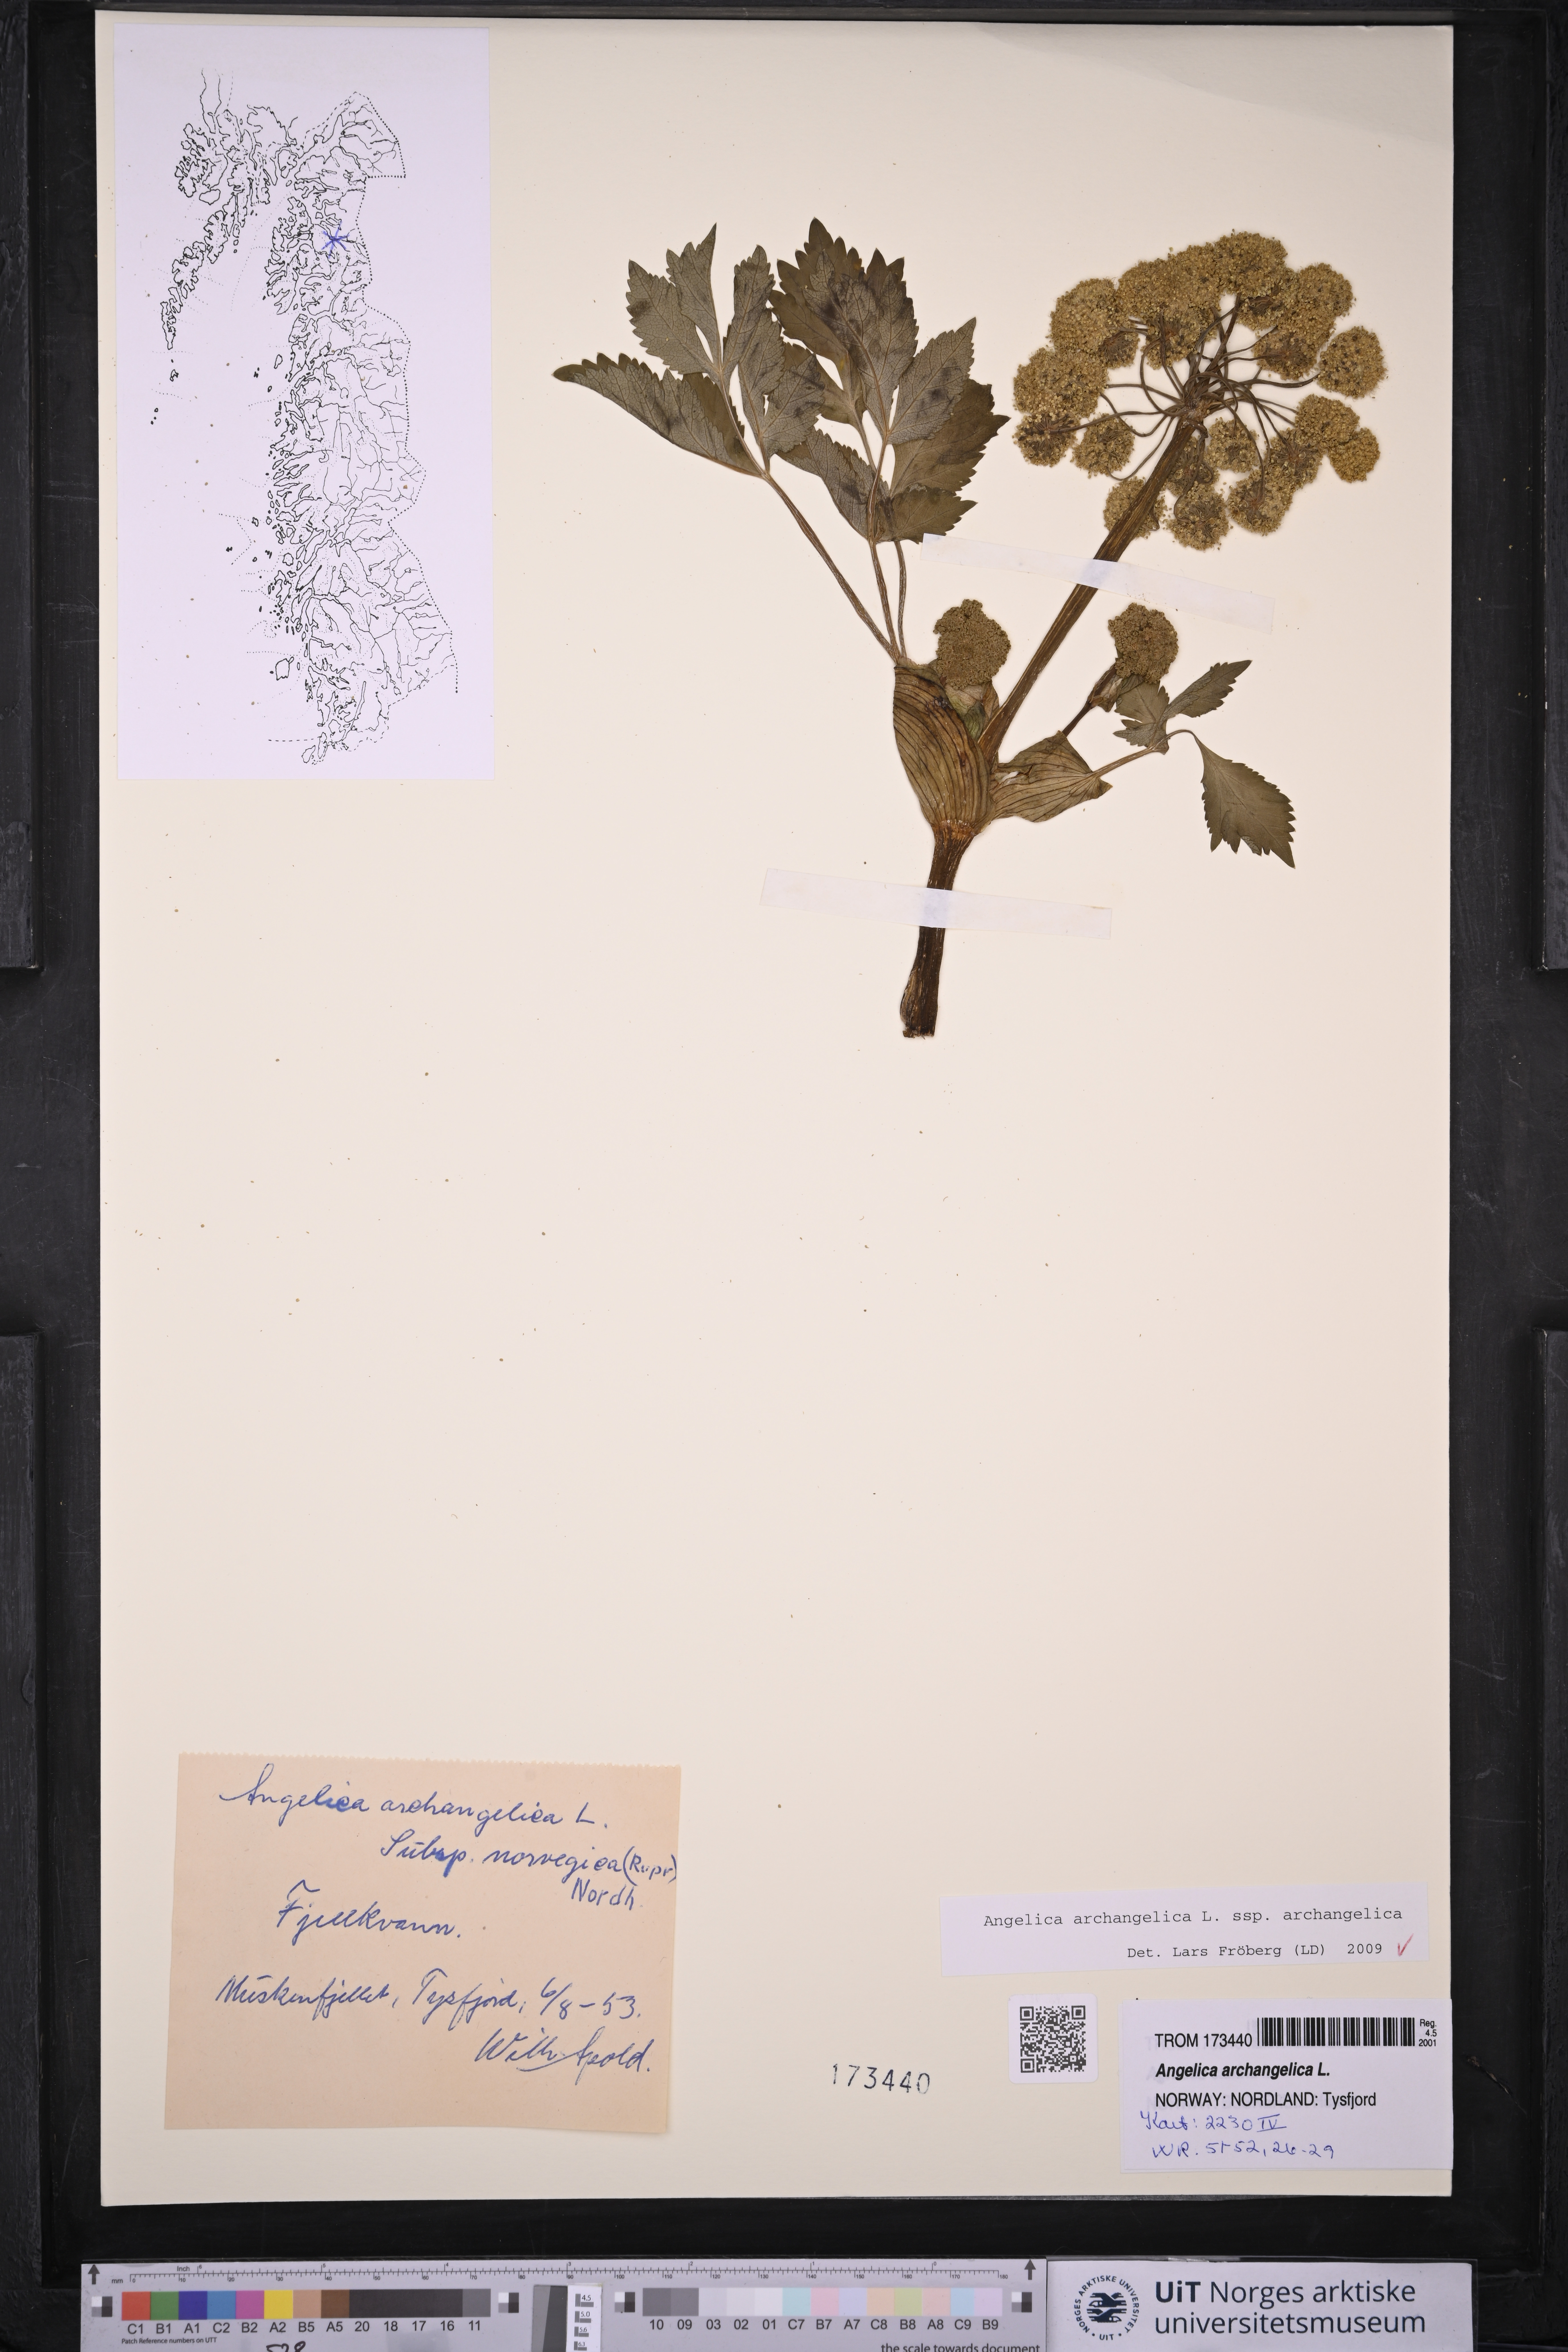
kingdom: Plantae
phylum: Tracheophyta
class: Magnoliopsida
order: Apiales
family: Apiaceae
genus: Angelica
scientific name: Angelica archangelica
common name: Garden angelica
